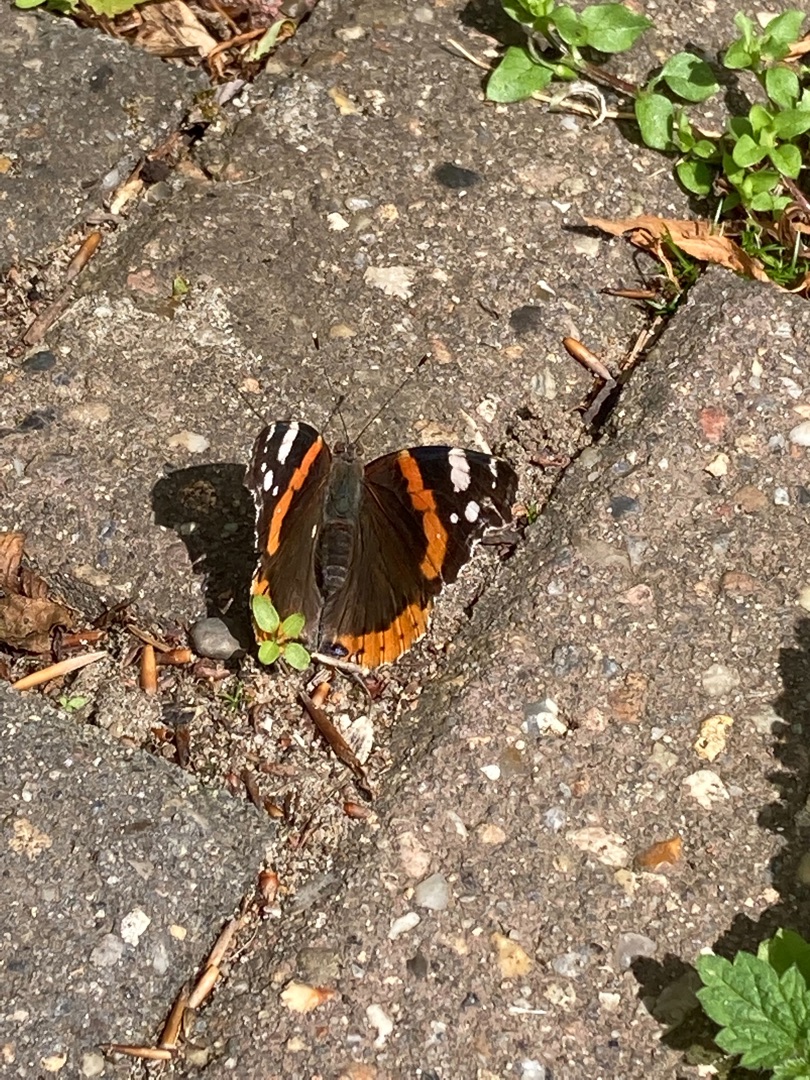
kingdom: Animalia
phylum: Arthropoda
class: Insecta
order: Lepidoptera
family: Nymphalidae
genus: Vanessa
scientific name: Vanessa atalanta
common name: Admiral
